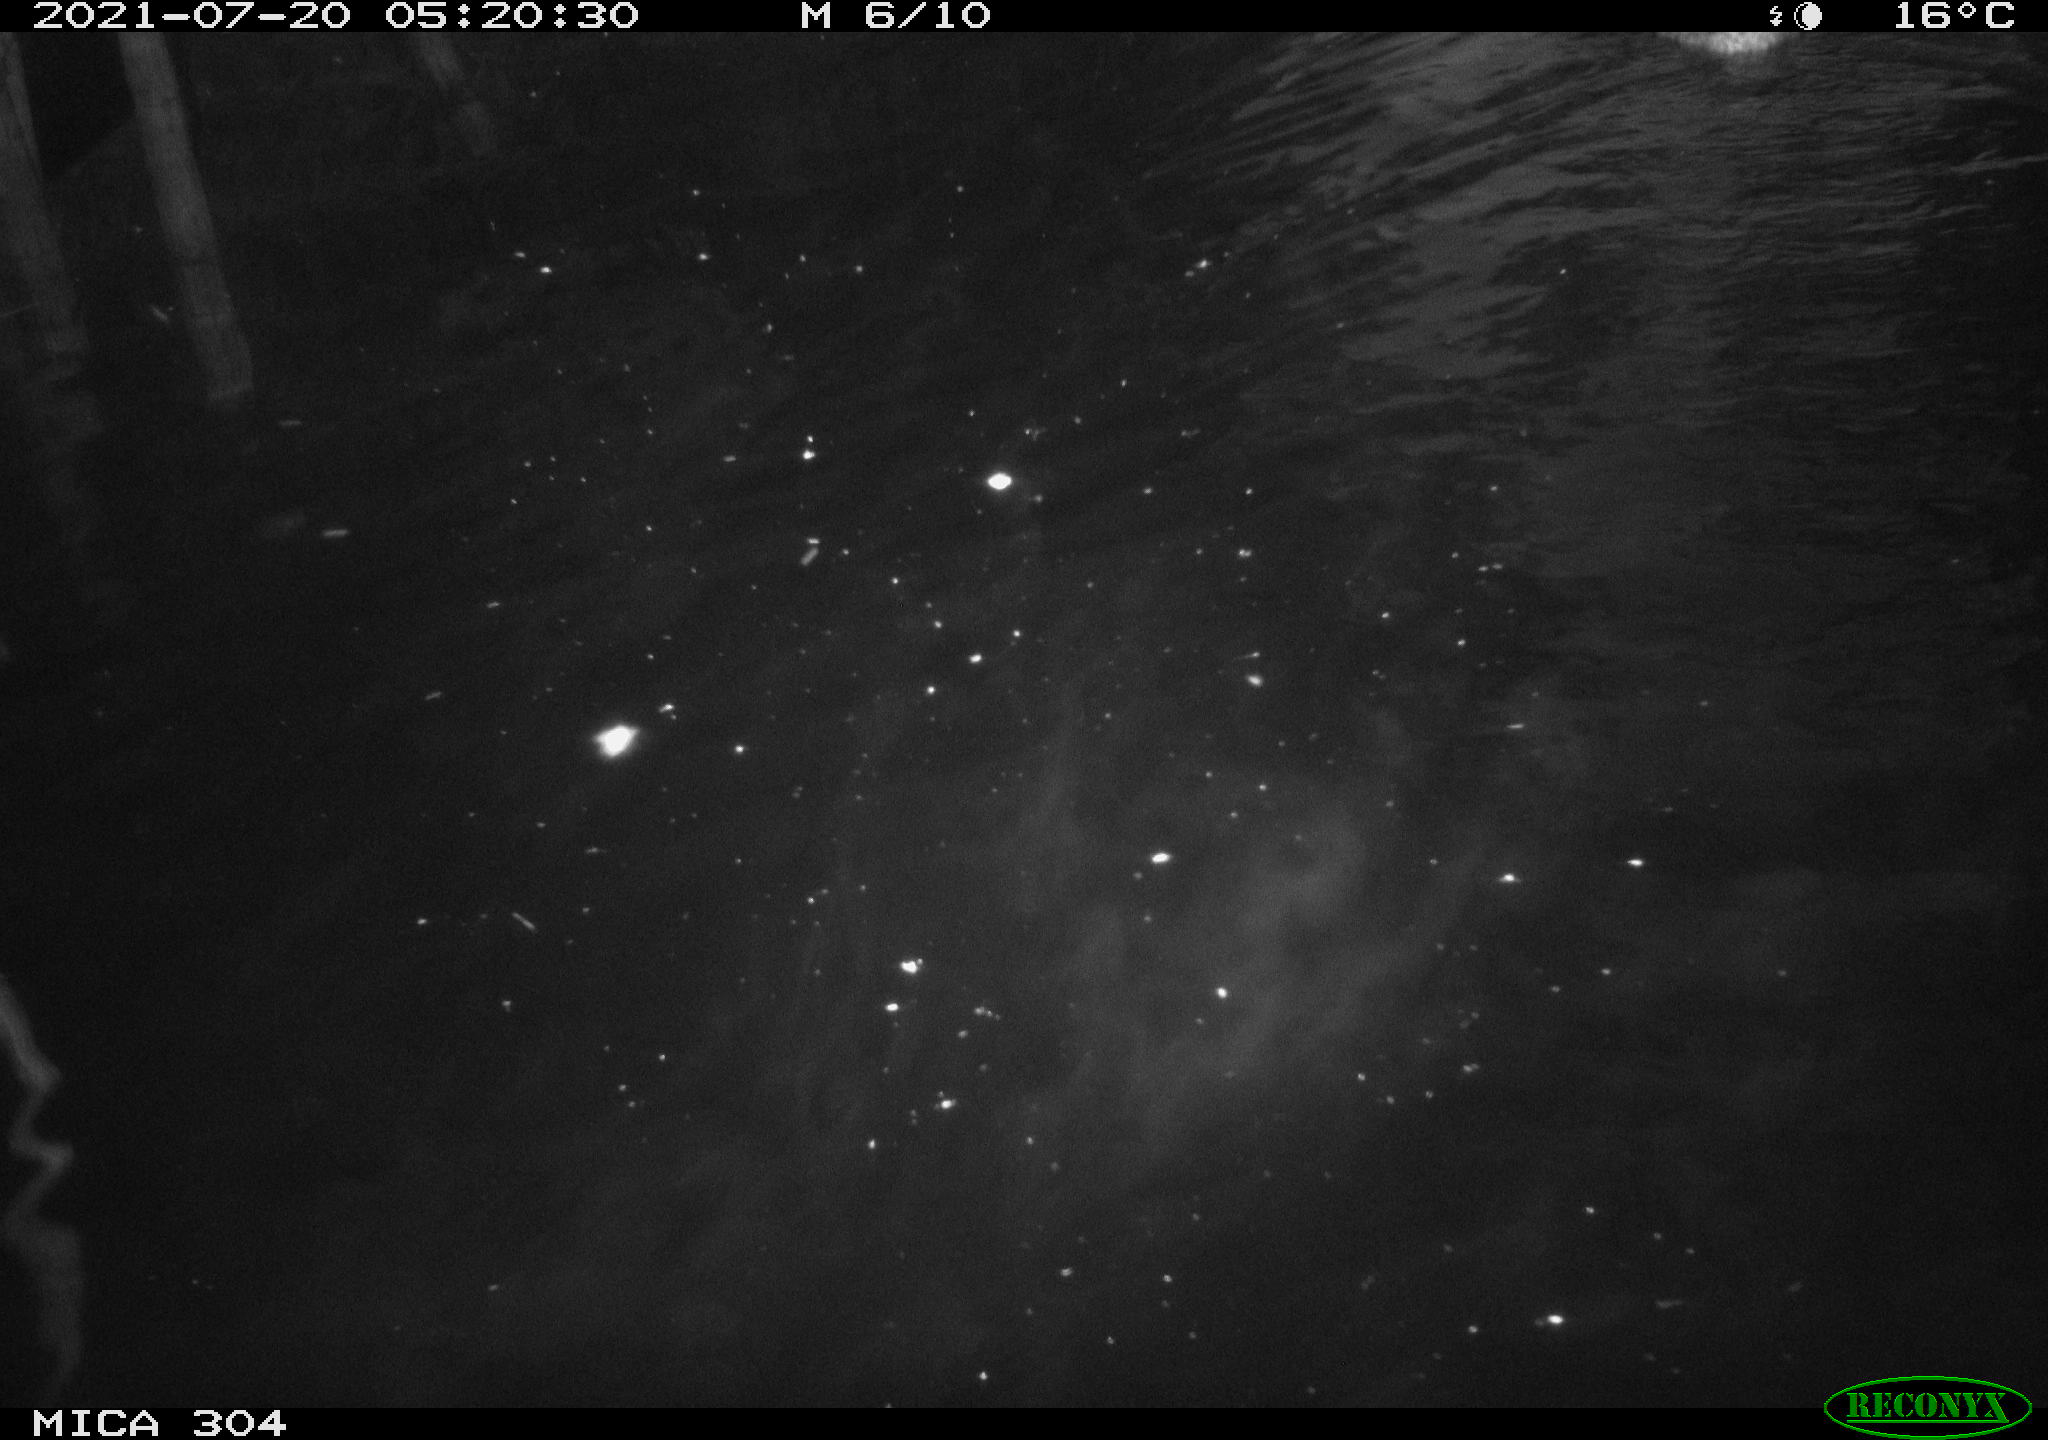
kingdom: Animalia
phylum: Chordata
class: Aves
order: Anseriformes
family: Anatidae
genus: Anas
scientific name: Anas platyrhynchos
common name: Mallard
